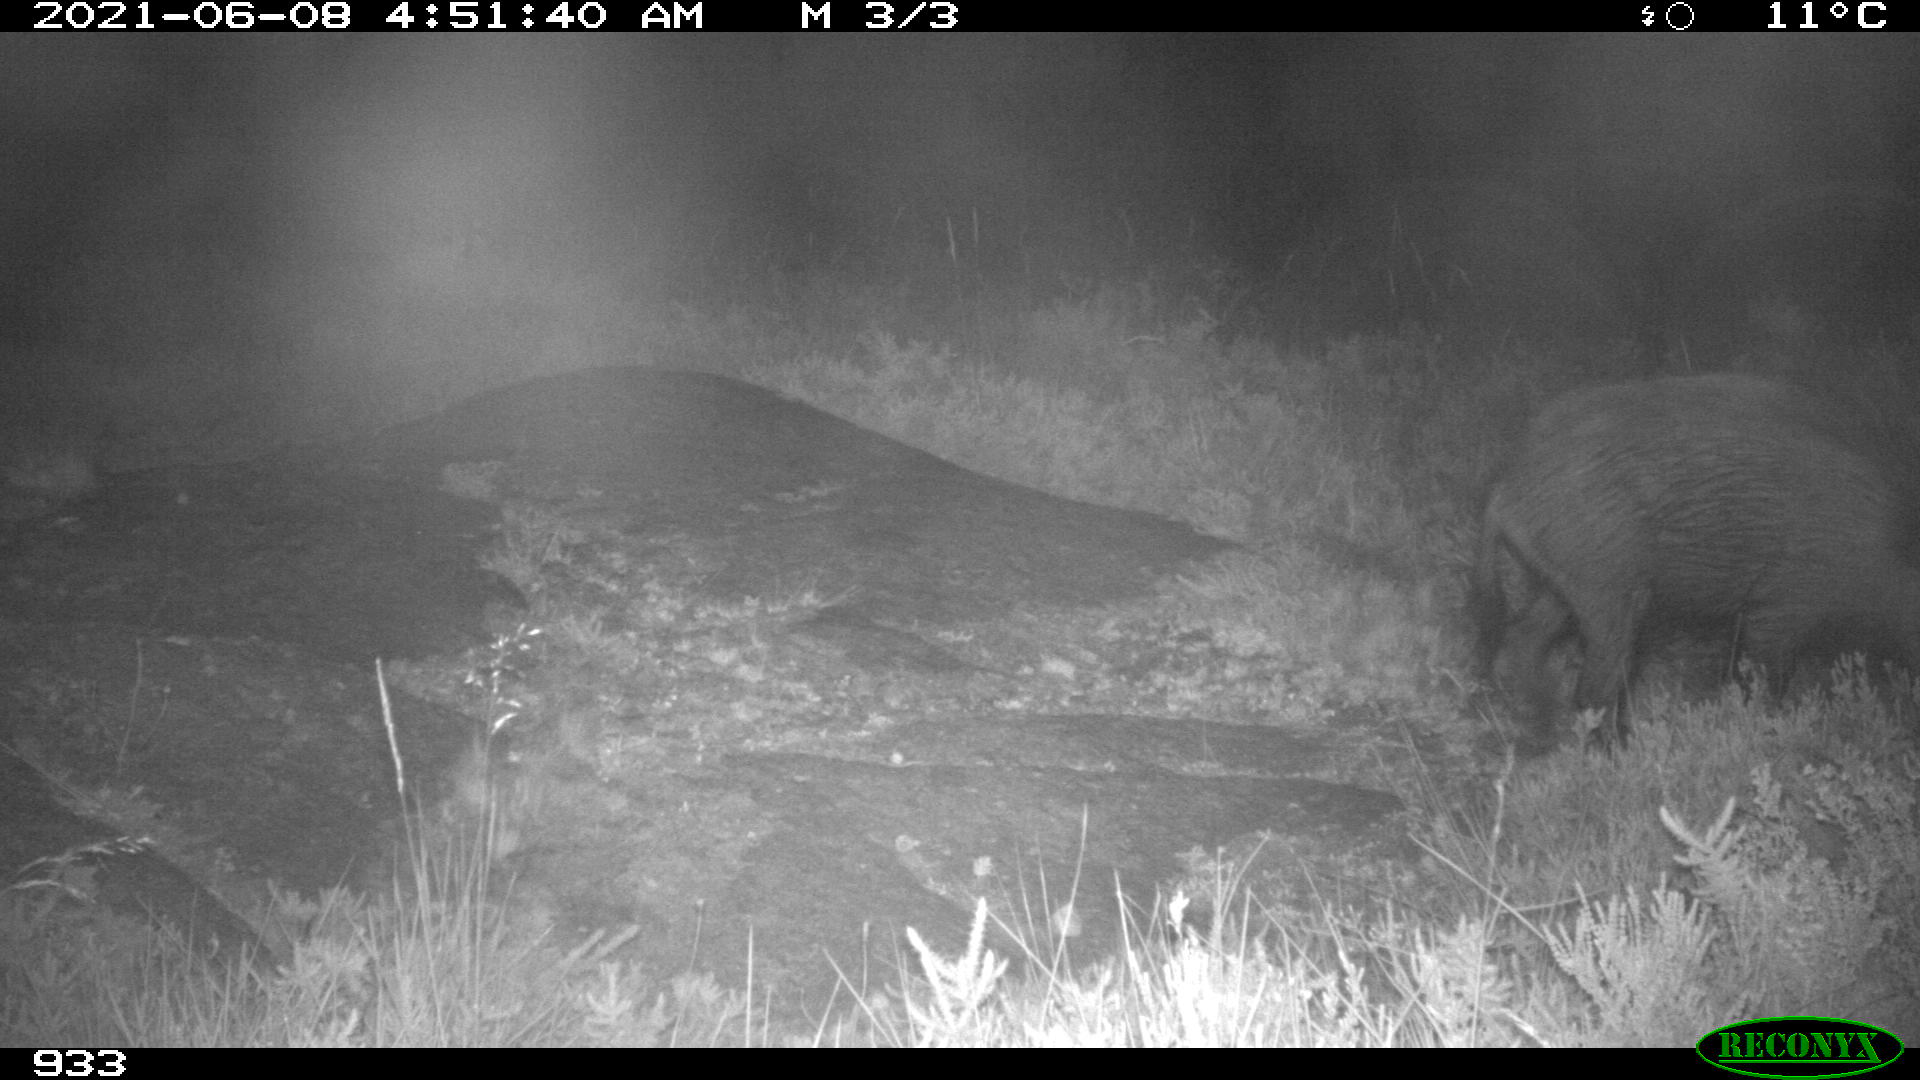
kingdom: Animalia
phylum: Chordata
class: Mammalia
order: Artiodactyla
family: Suidae
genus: Sus
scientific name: Sus scrofa
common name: Wild boar
